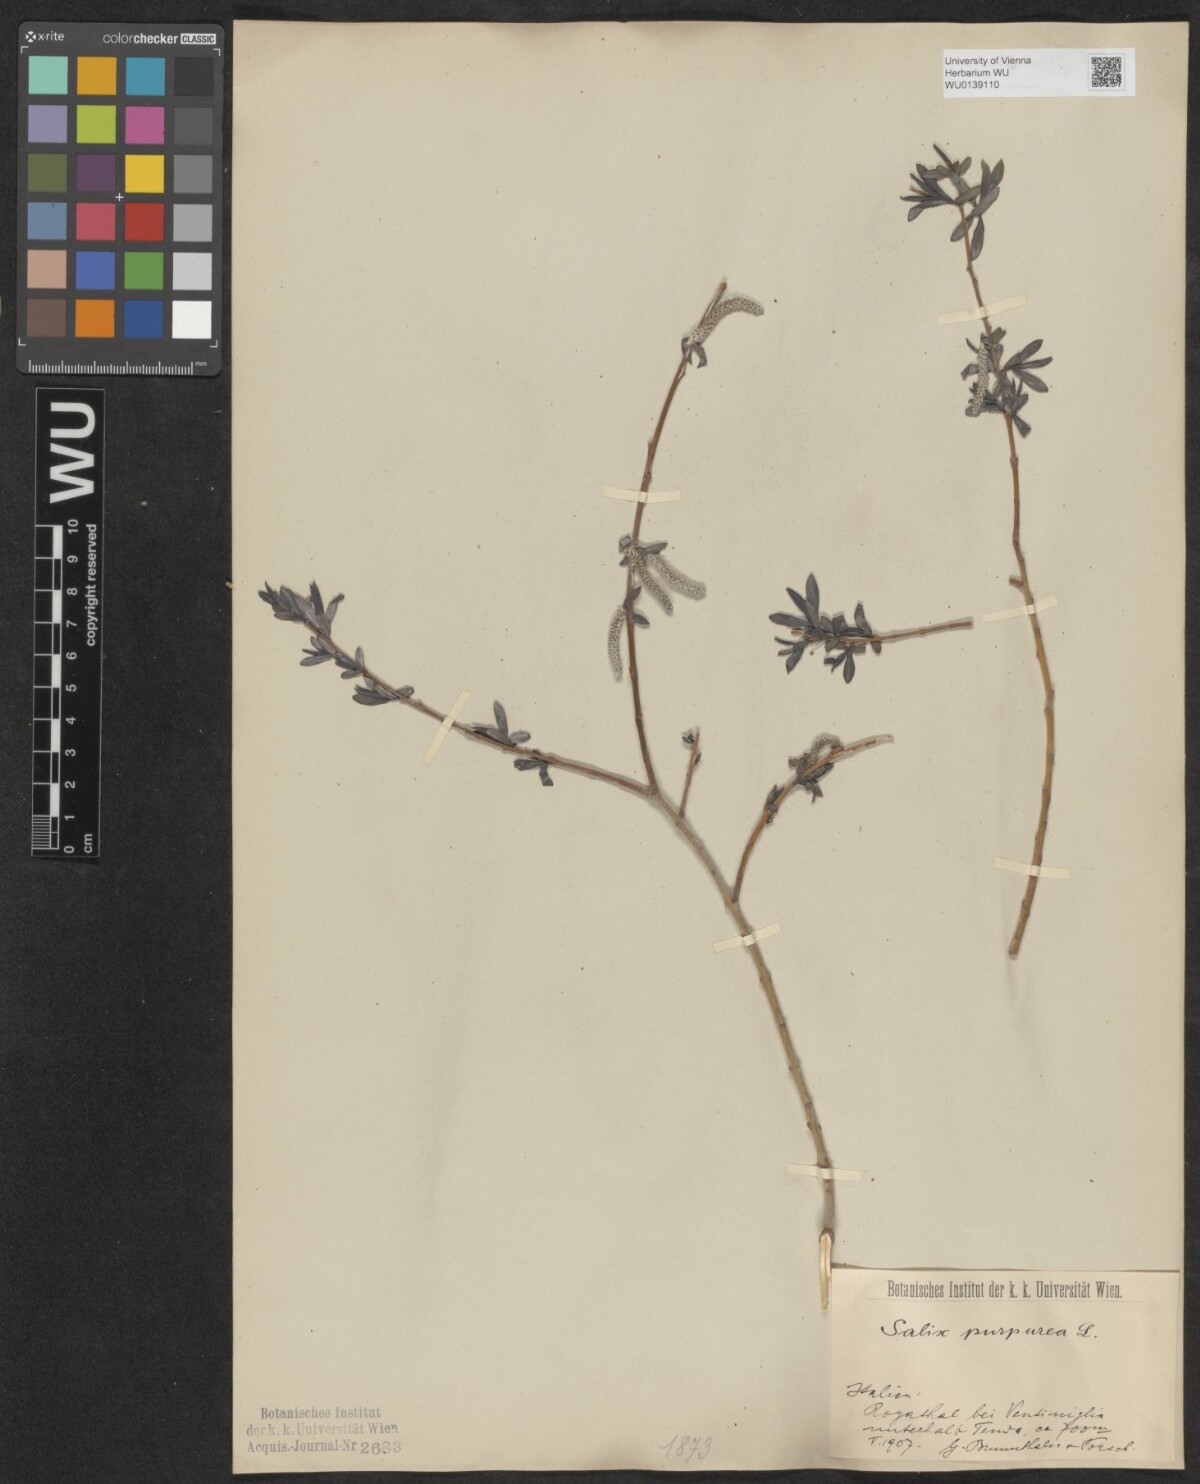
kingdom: Plantae
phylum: Tracheophyta
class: Magnoliopsida
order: Malpighiales
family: Salicaceae
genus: Salix
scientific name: Salix purpurea
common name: Purple willow
